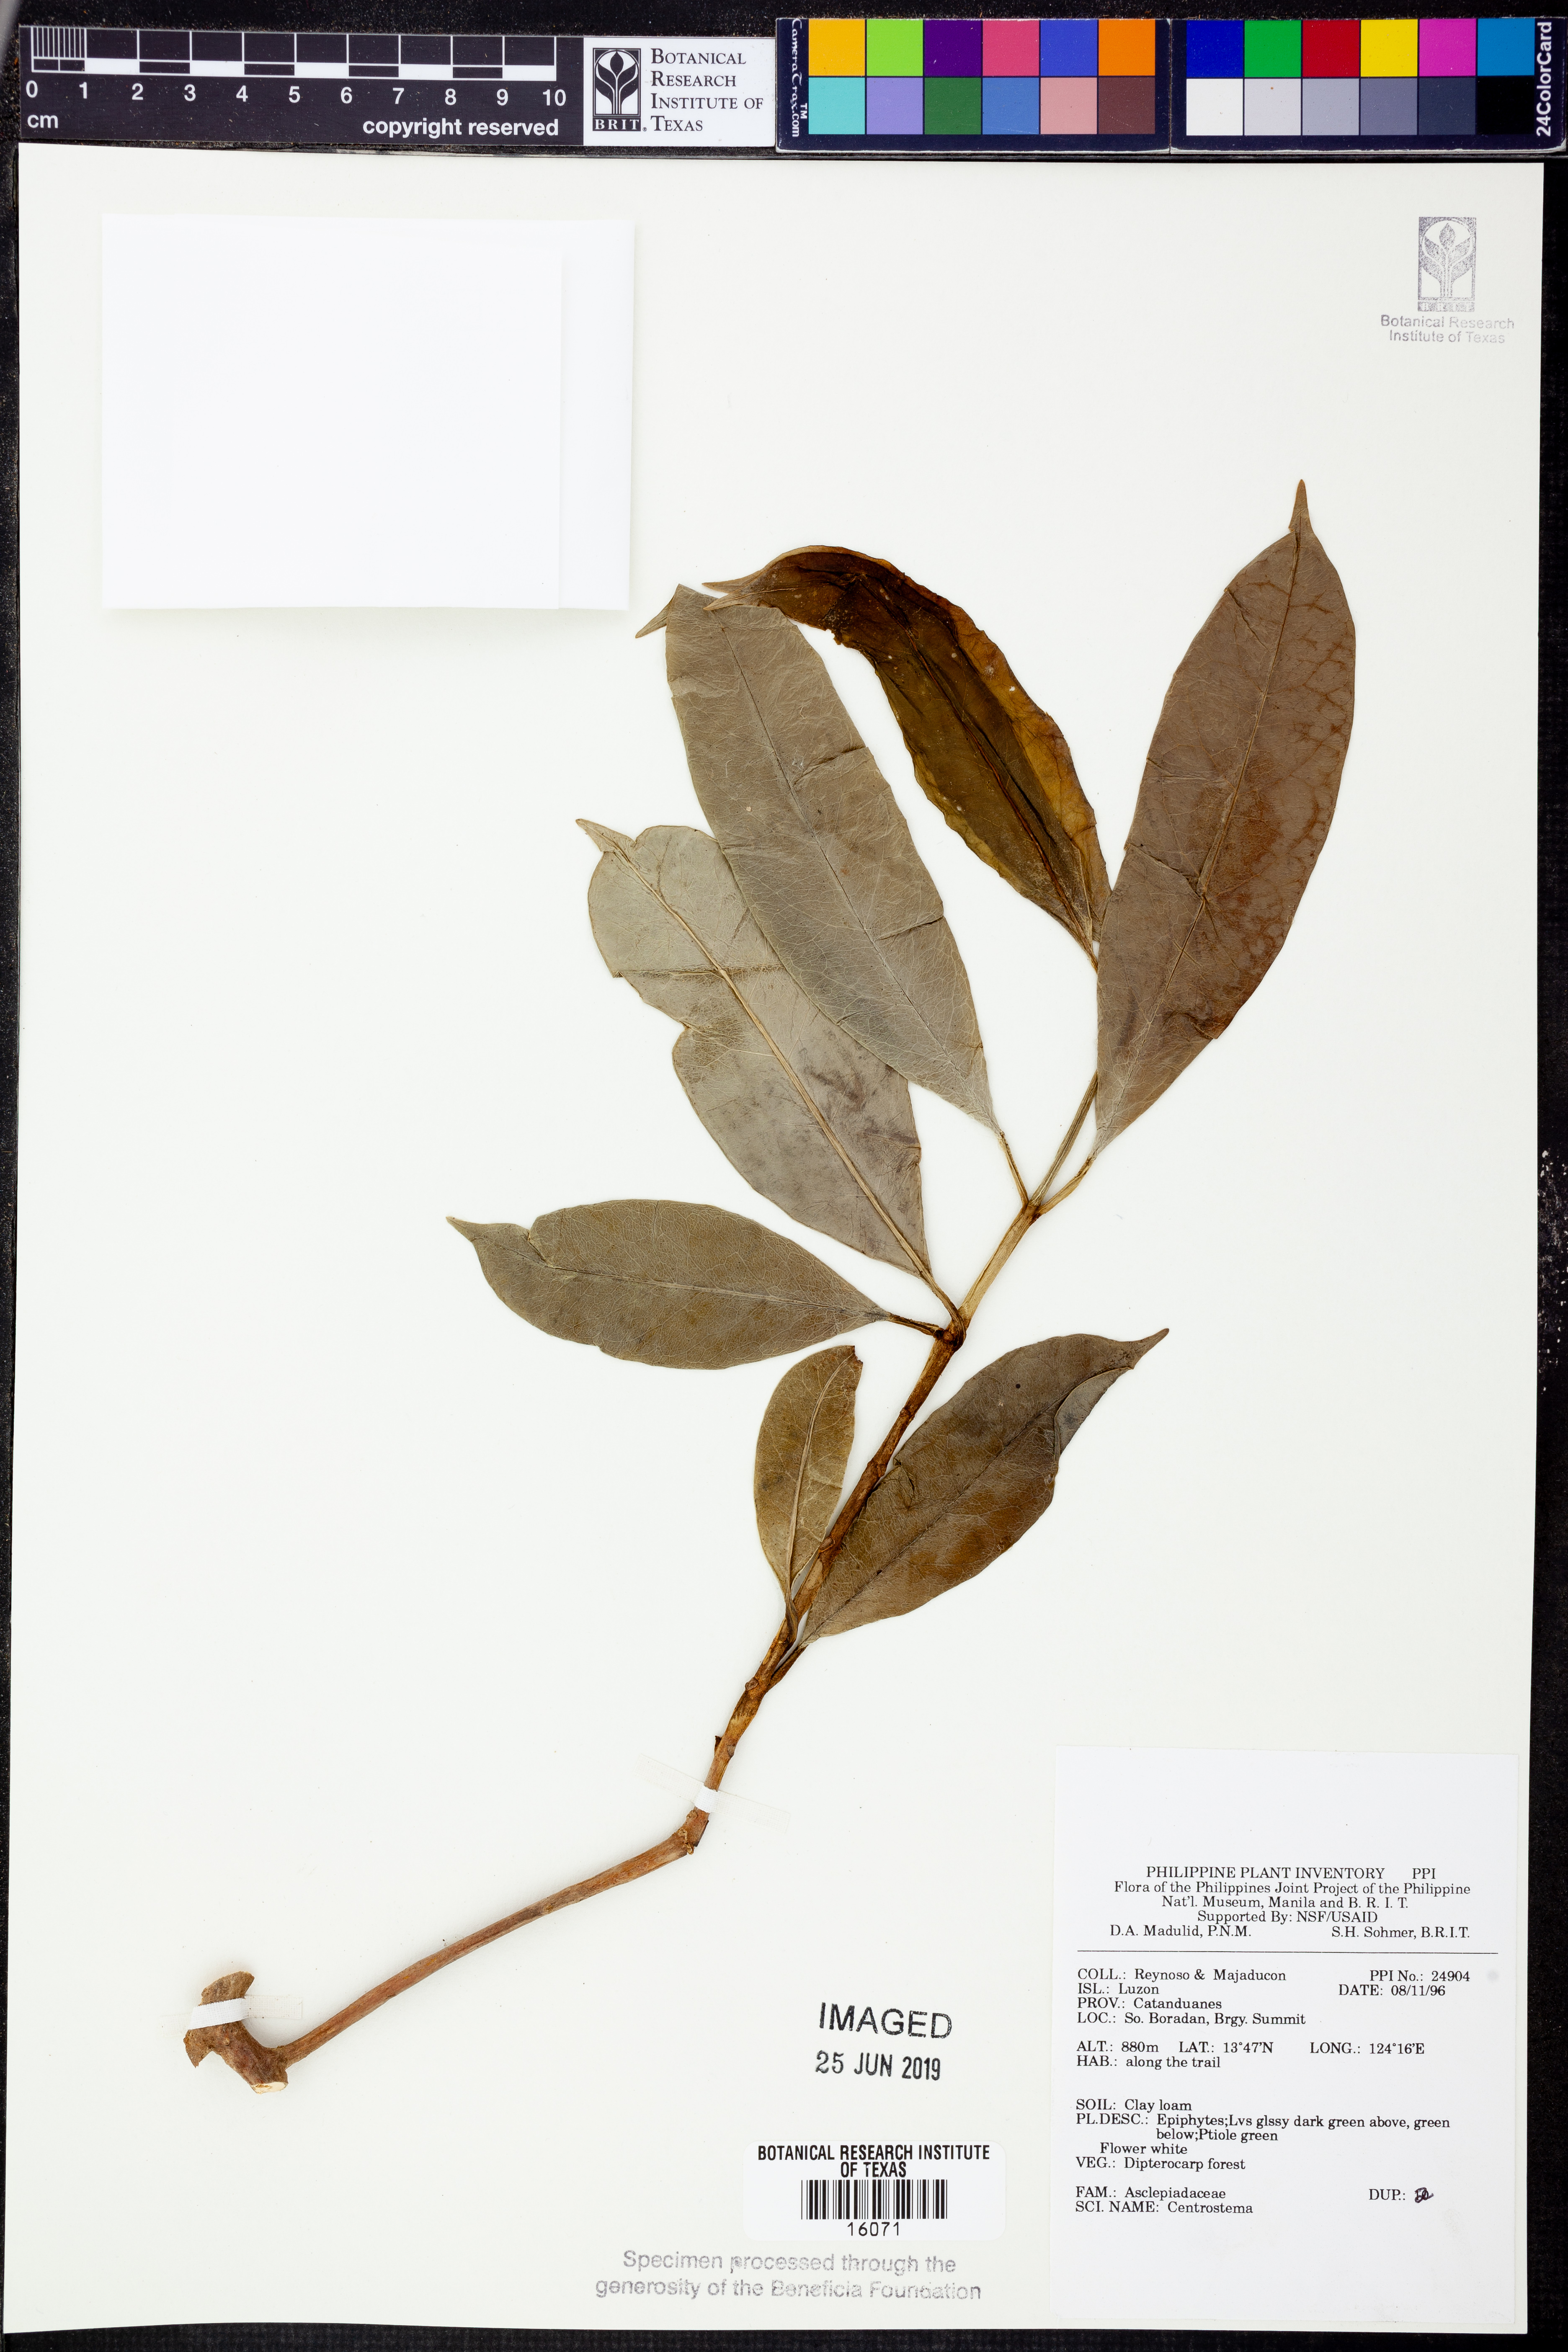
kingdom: Plantae
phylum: Tracheophyta
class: Magnoliopsida
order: Gentianales
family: Apocynaceae
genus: Hoya
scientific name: Hoya
